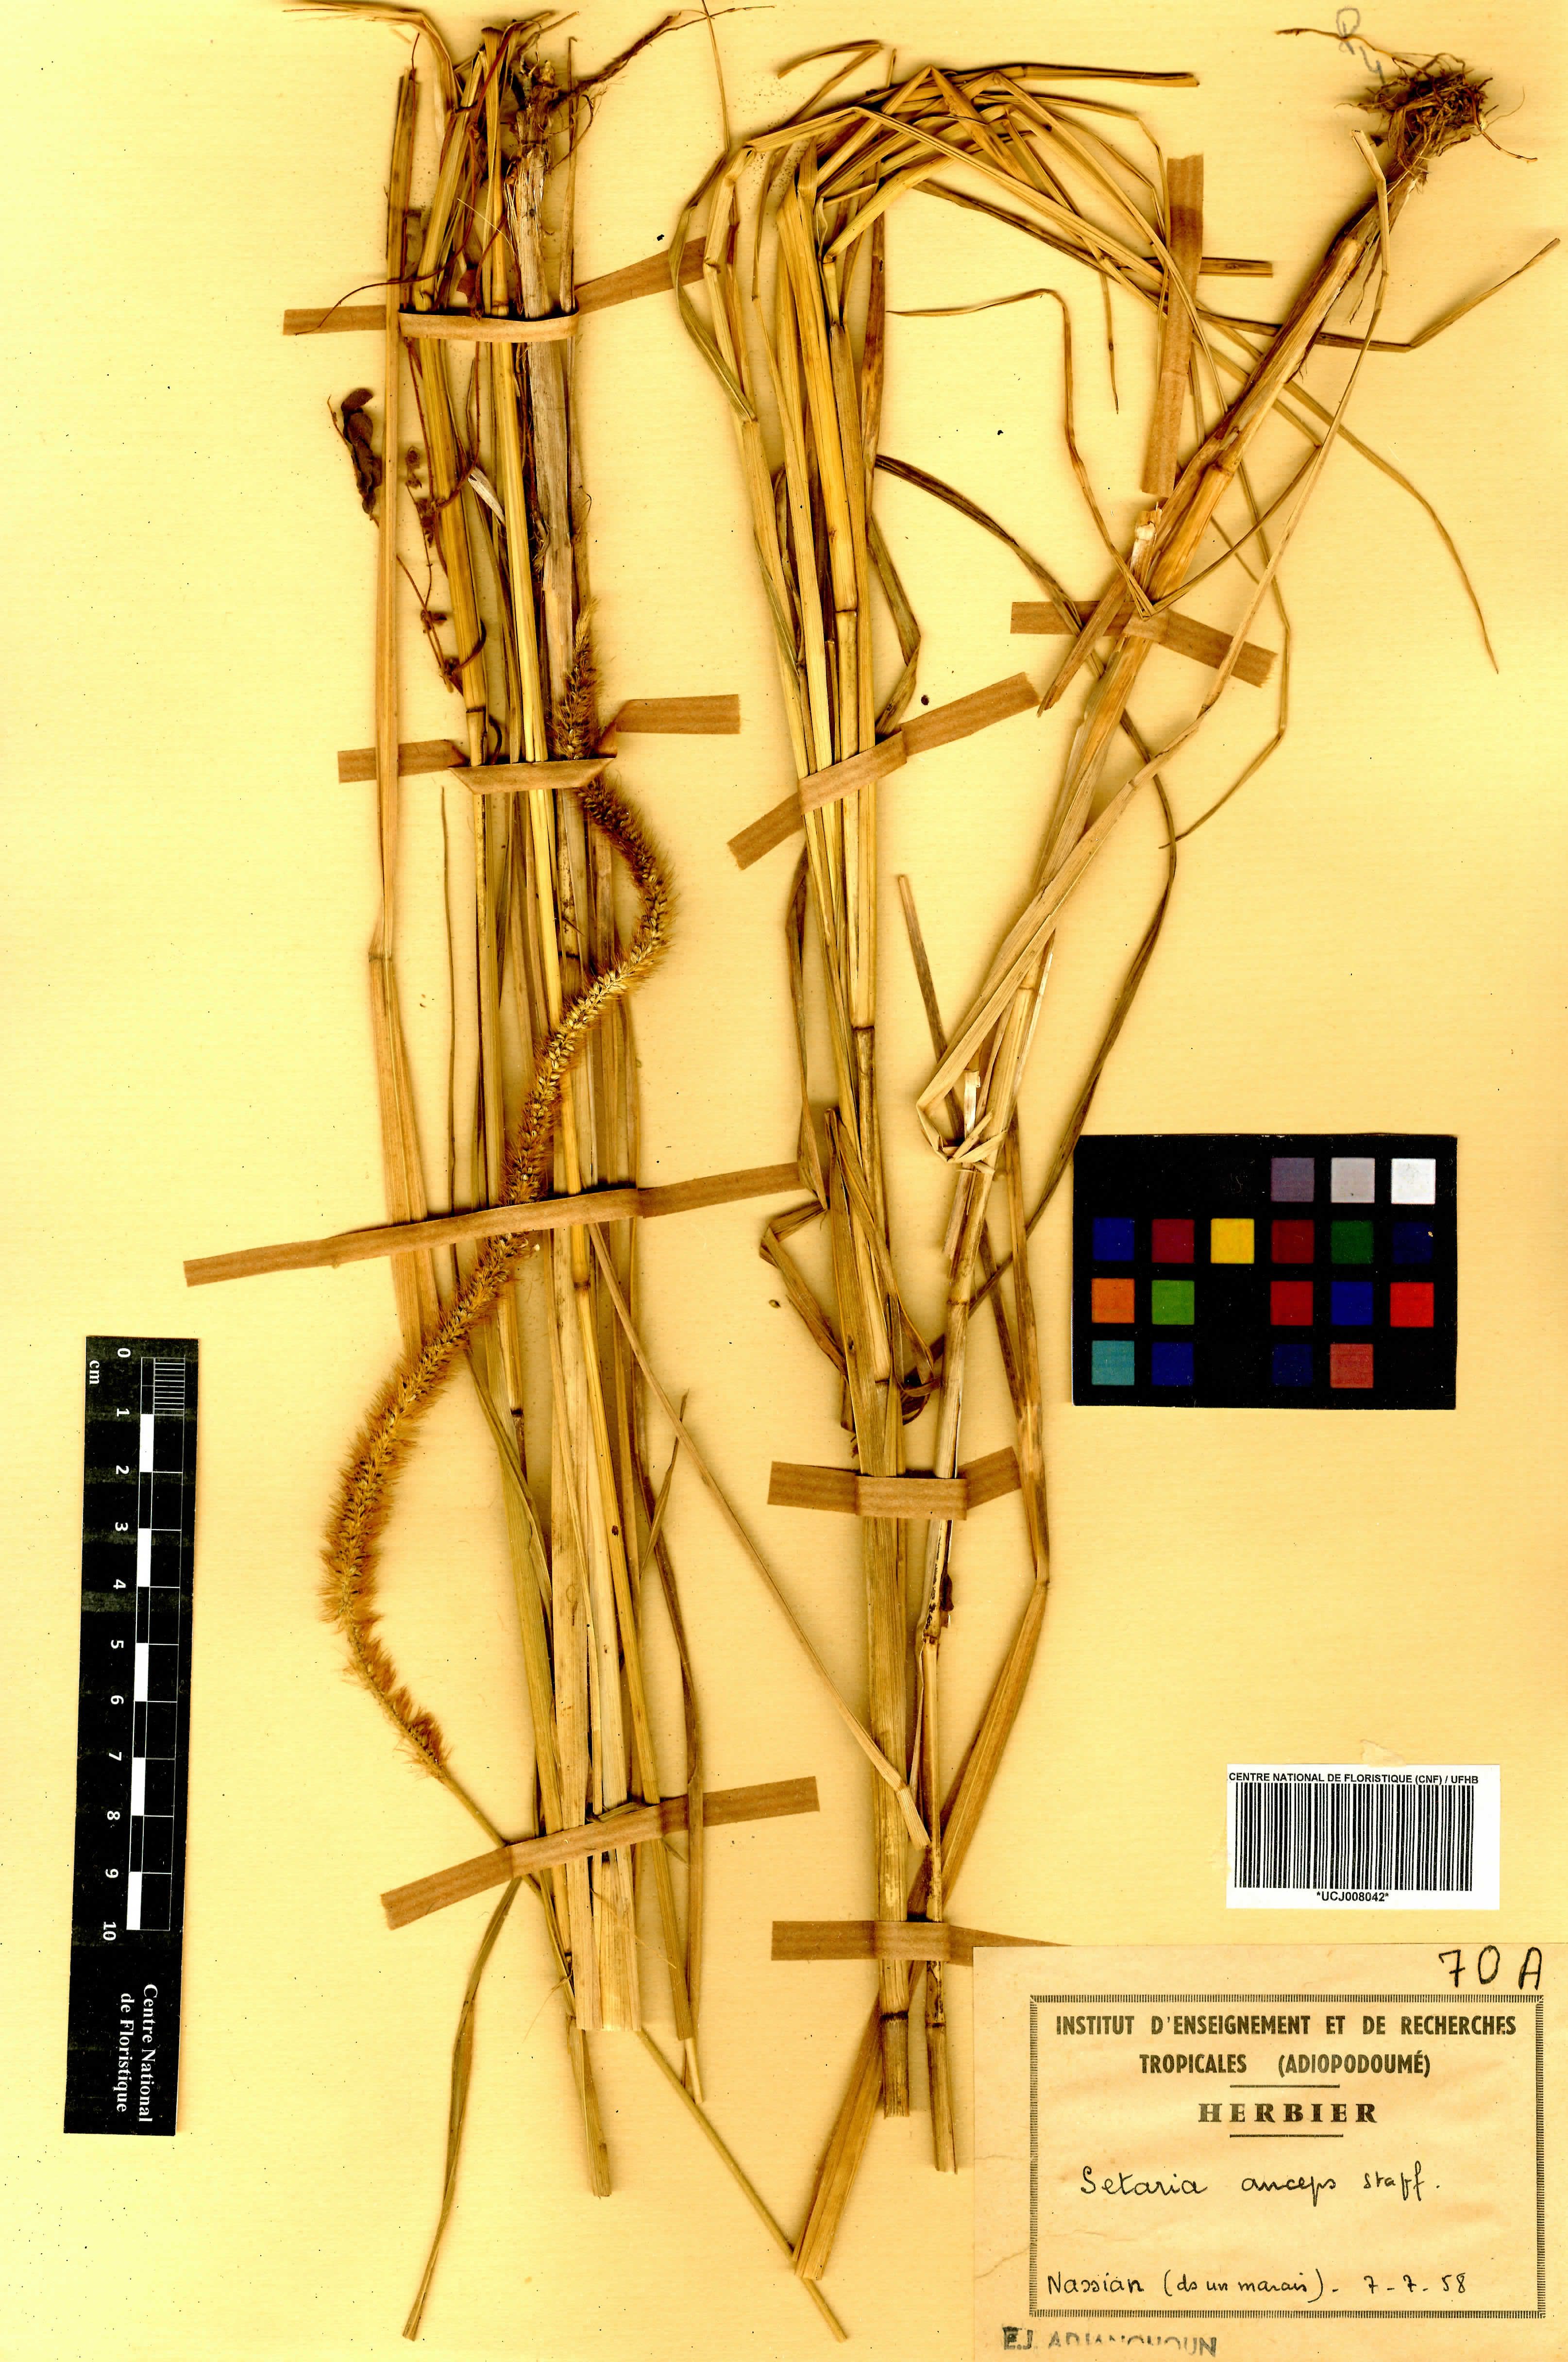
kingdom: Plantae
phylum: Tracheophyta
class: Liliopsida
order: Poales
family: Poaceae
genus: Setaria
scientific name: Setaria sphacelata
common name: African bristlegrass
